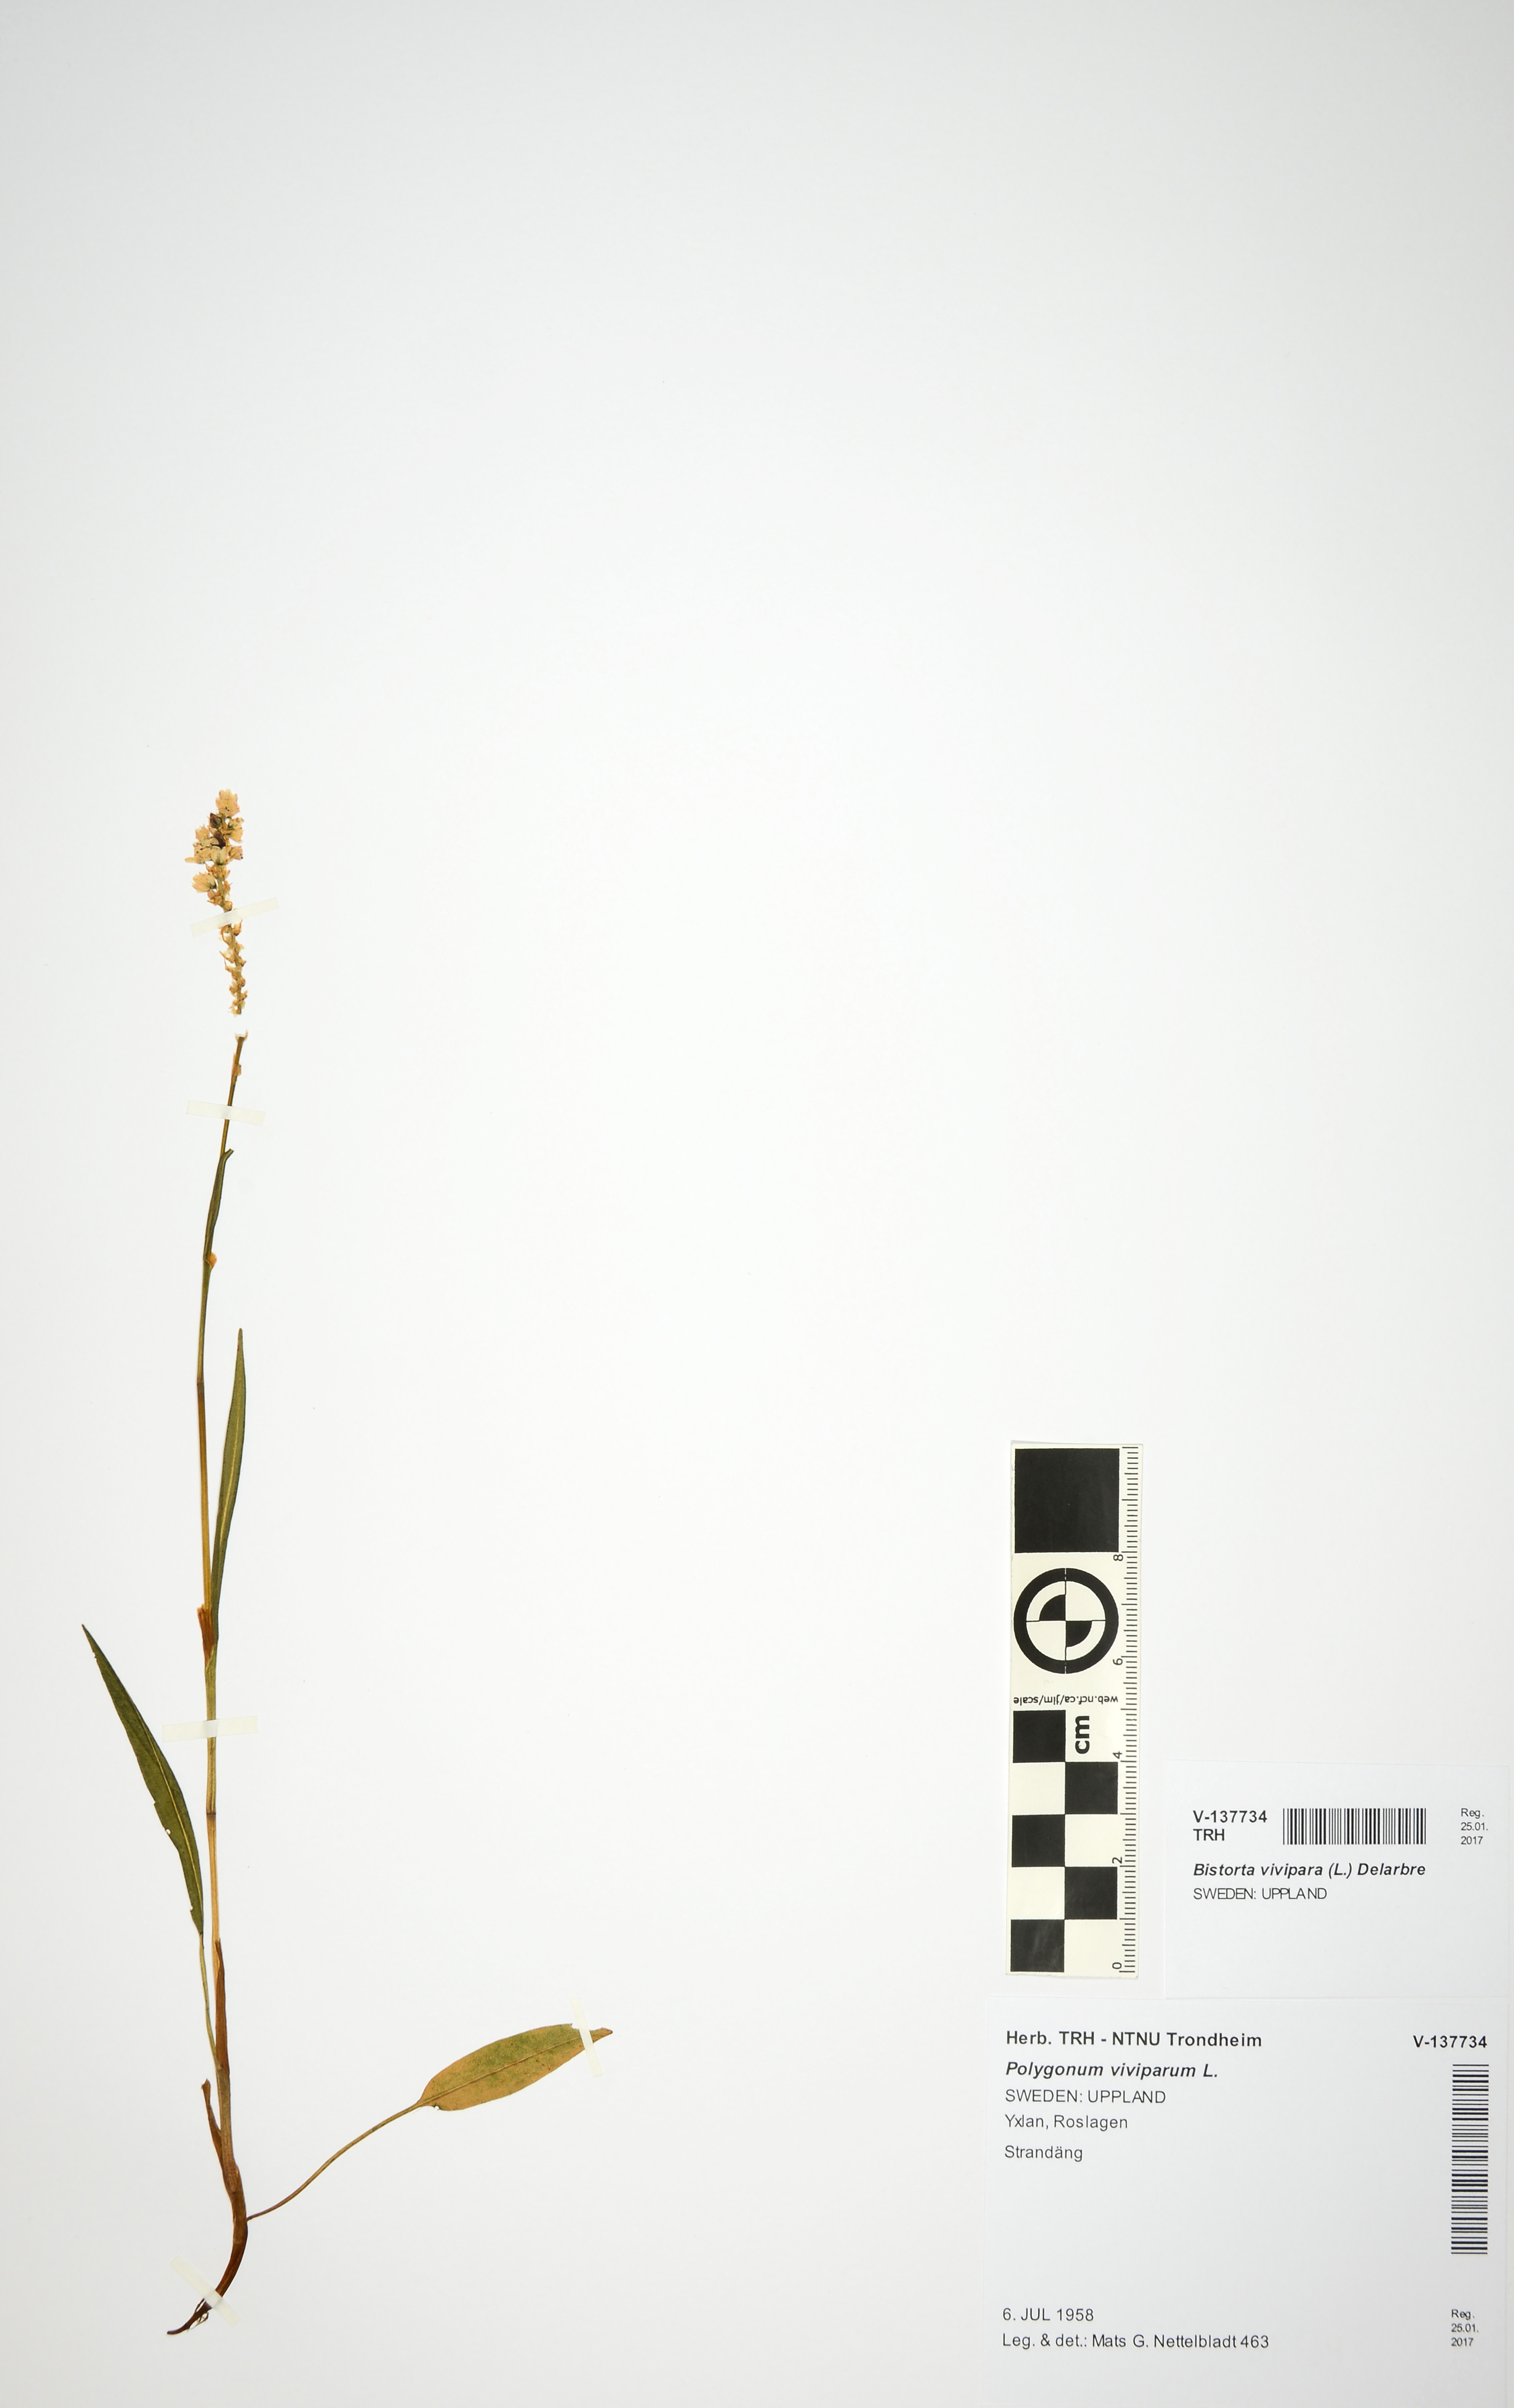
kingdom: Plantae
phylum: Tracheophyta
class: Magnoliopsida
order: Caryophyllales
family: Polygonaceae
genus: Bistorta
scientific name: Bistorta vivipara
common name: Alpine bistort
